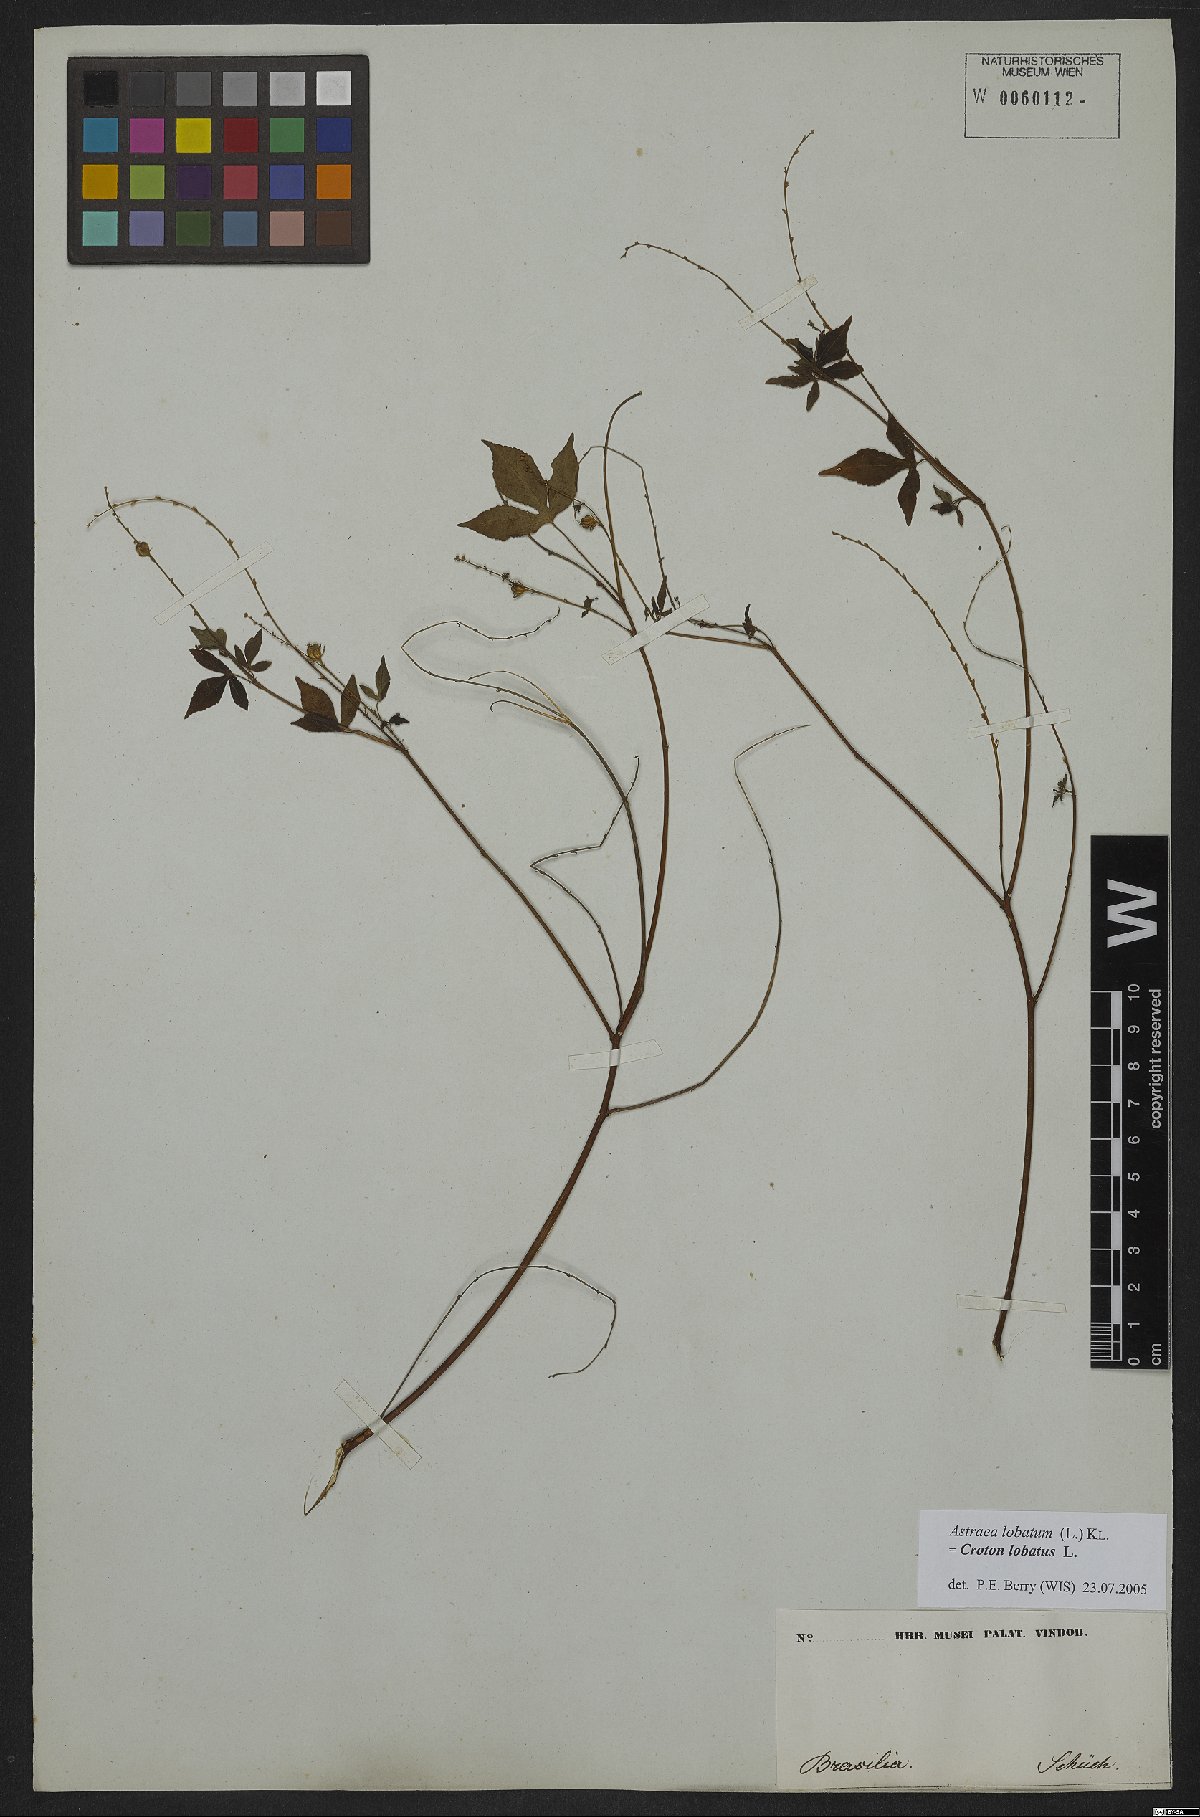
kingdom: Plantae
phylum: Tracheophyta
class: Magnoliopsida
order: Malpighiales
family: Euphorbiaceae
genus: Croton
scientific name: Croton lobatus
